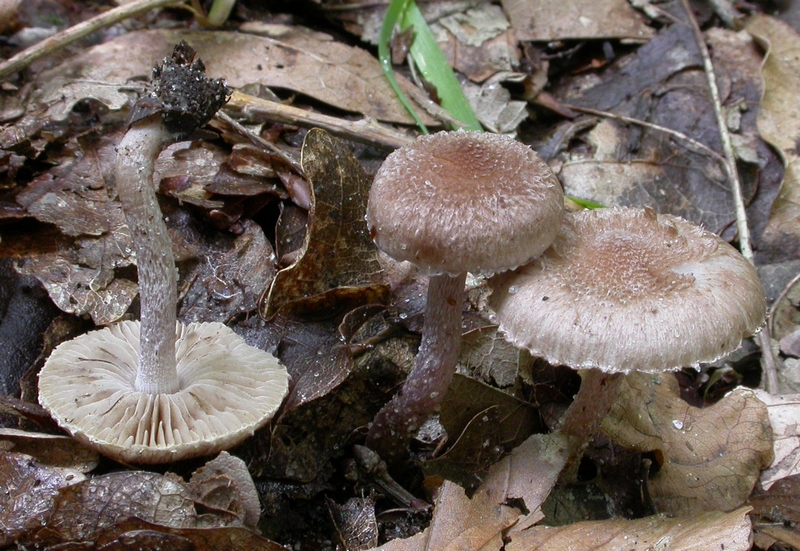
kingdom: Fungi
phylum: Basidiomycota
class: Agaricomycetes
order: Agaricales
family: Inocybaceae
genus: Inocybe
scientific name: Inocybe griseolilacina
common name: lillagrå trævlhat
